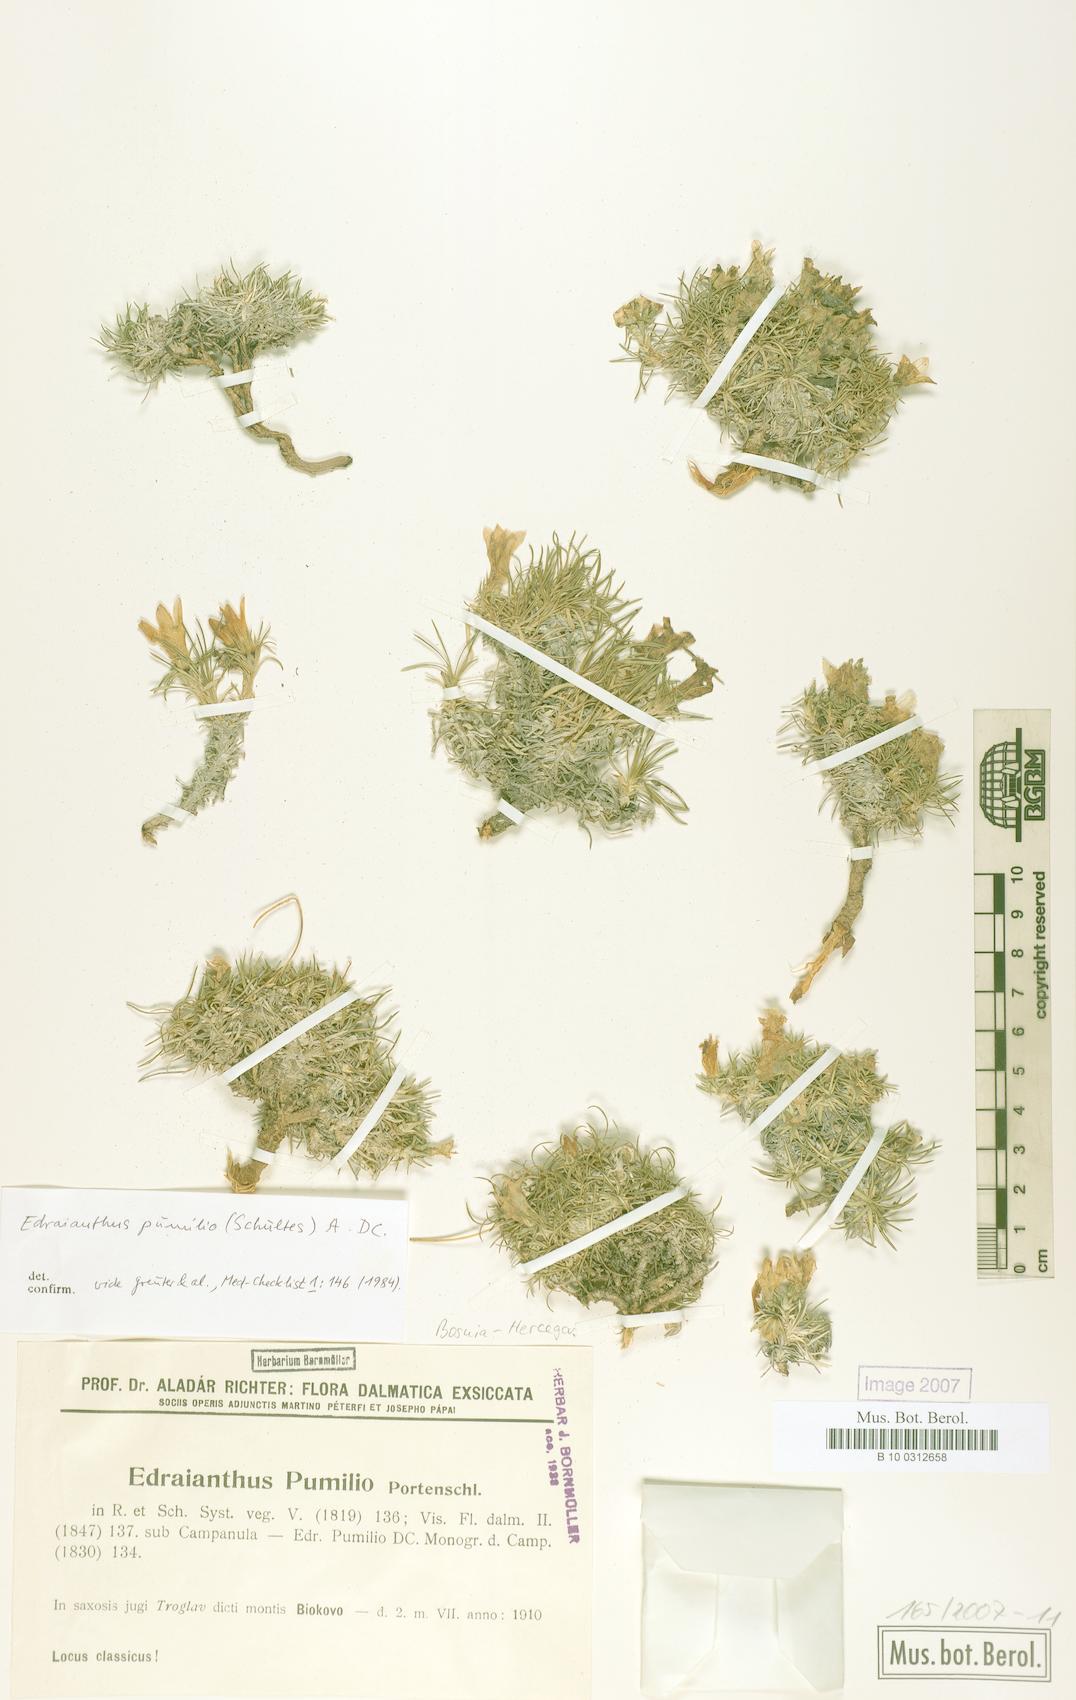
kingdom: Plantae
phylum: Tracheophyta
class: Magnoliopsida
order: Asterales
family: Campanulaceae
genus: Edraianthus
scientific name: Edraianthus pumilio
